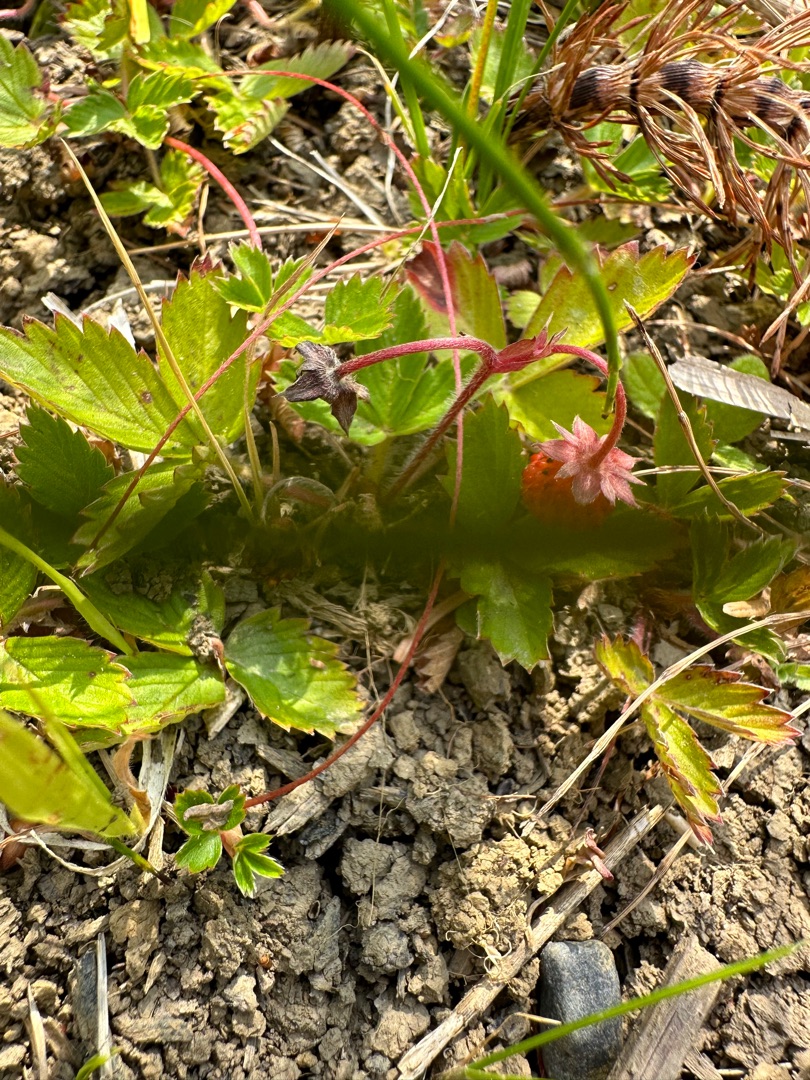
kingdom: Plantae
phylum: Tracheophyta
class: Magnoliopsida
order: Rosales
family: Rosaceae
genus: Fragaria
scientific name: Fragaria vesca
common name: Skov-jordbær
